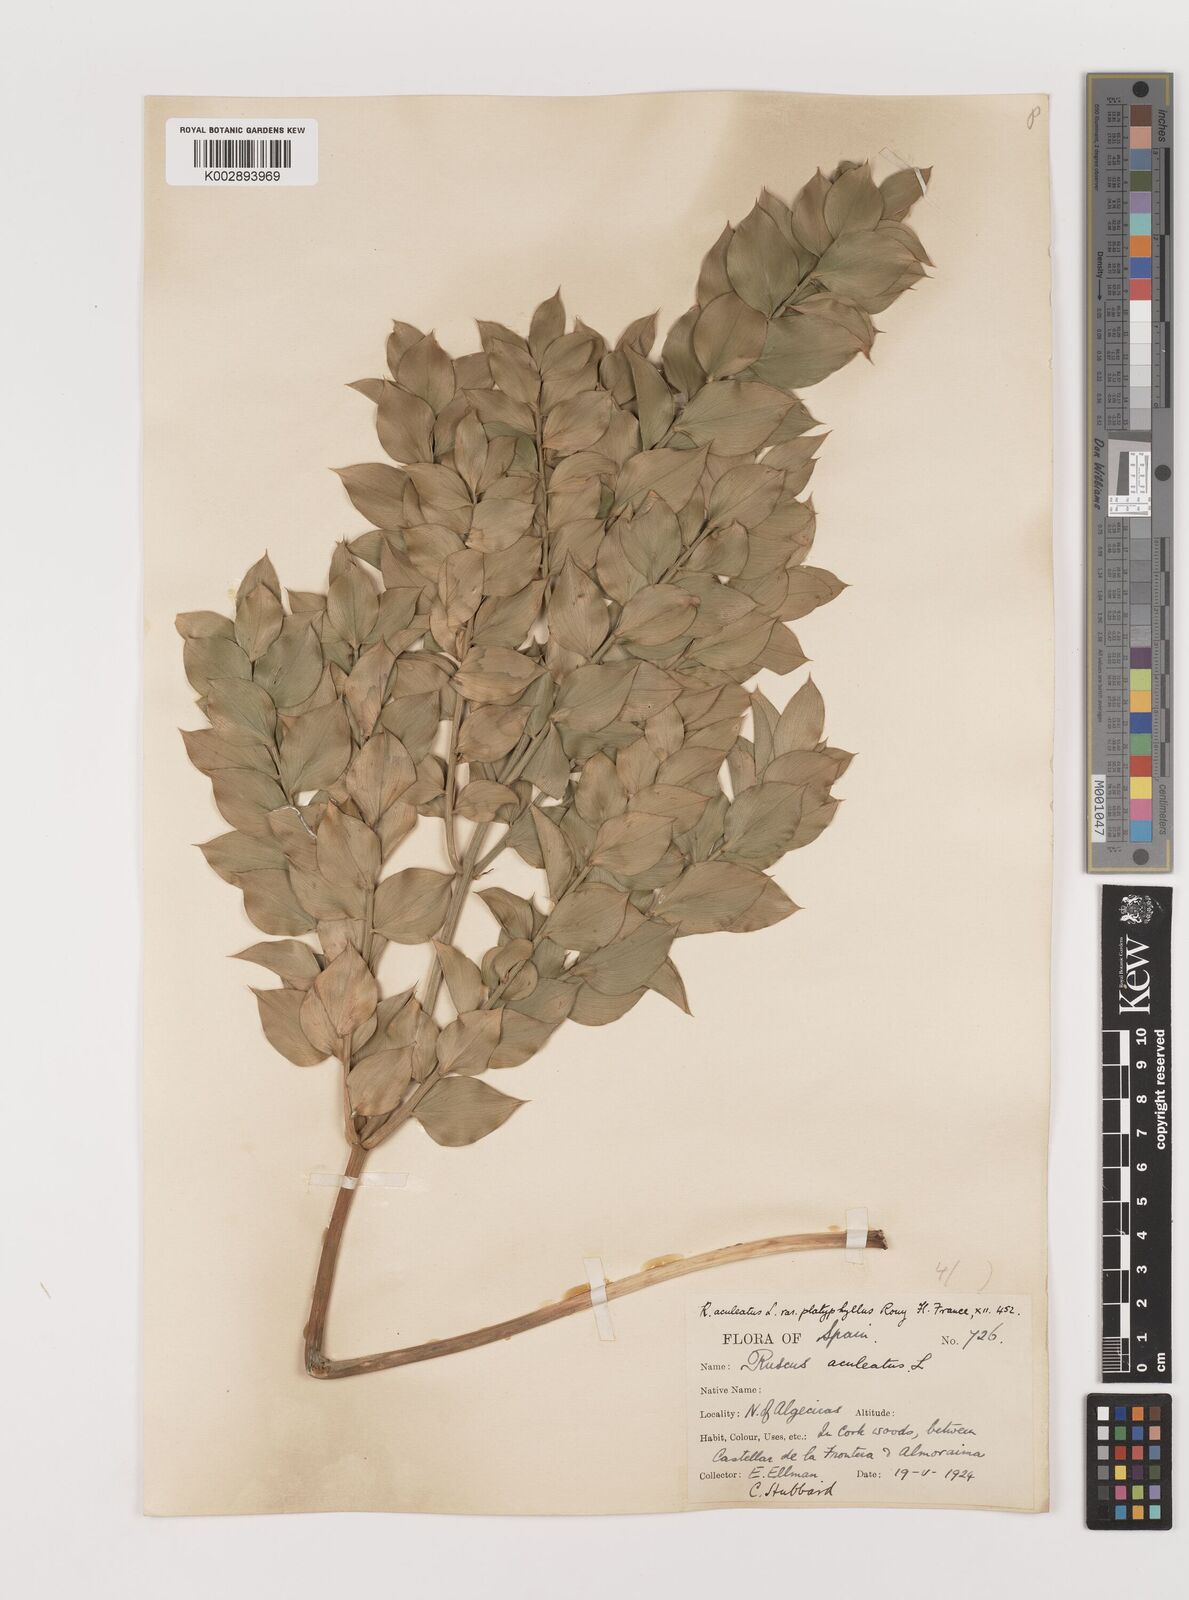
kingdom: Plantae
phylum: Tracheophyta
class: Liliopsida
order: Asparagales
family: Asparagaceae
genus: Ruscus
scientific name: Ruscus aculeatus
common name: Butcher's-broom
